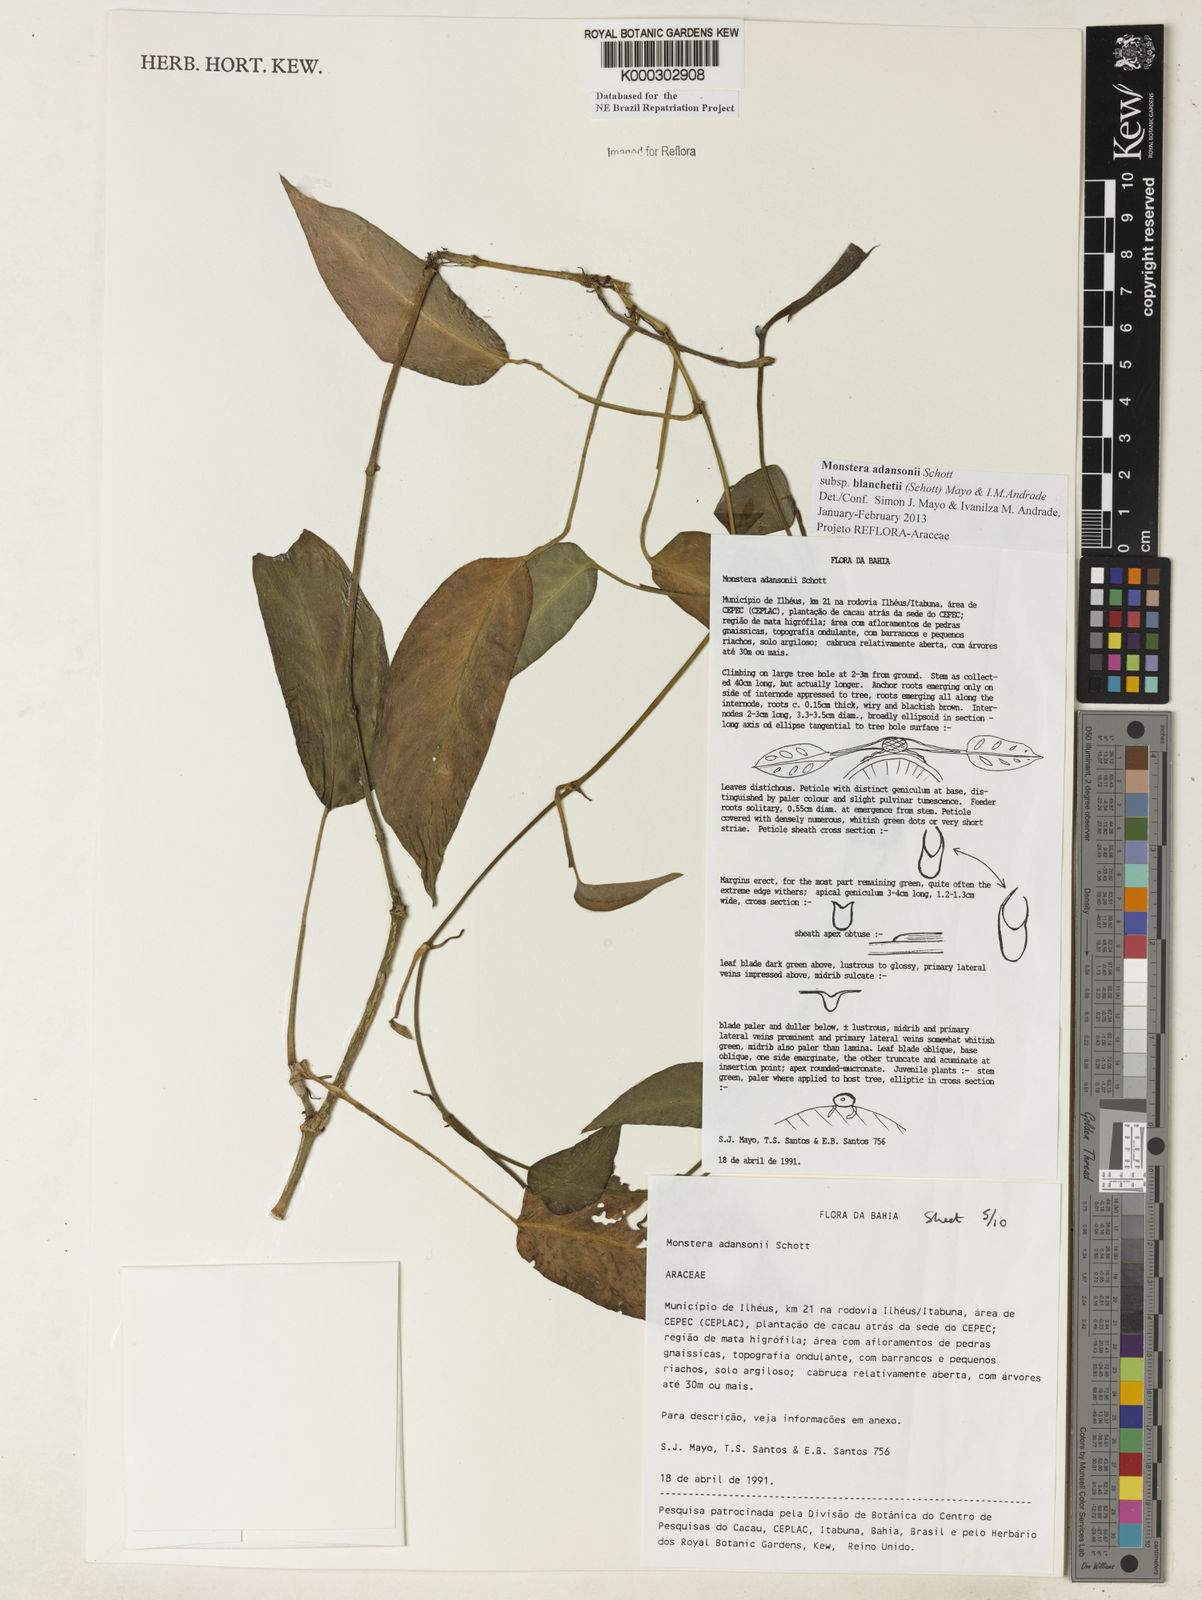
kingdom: Plantae
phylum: Tracheophyta
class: Liliopsida
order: Alismatales
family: Araceae
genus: Monstera
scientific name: Monstera adansonii
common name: Tarovine
